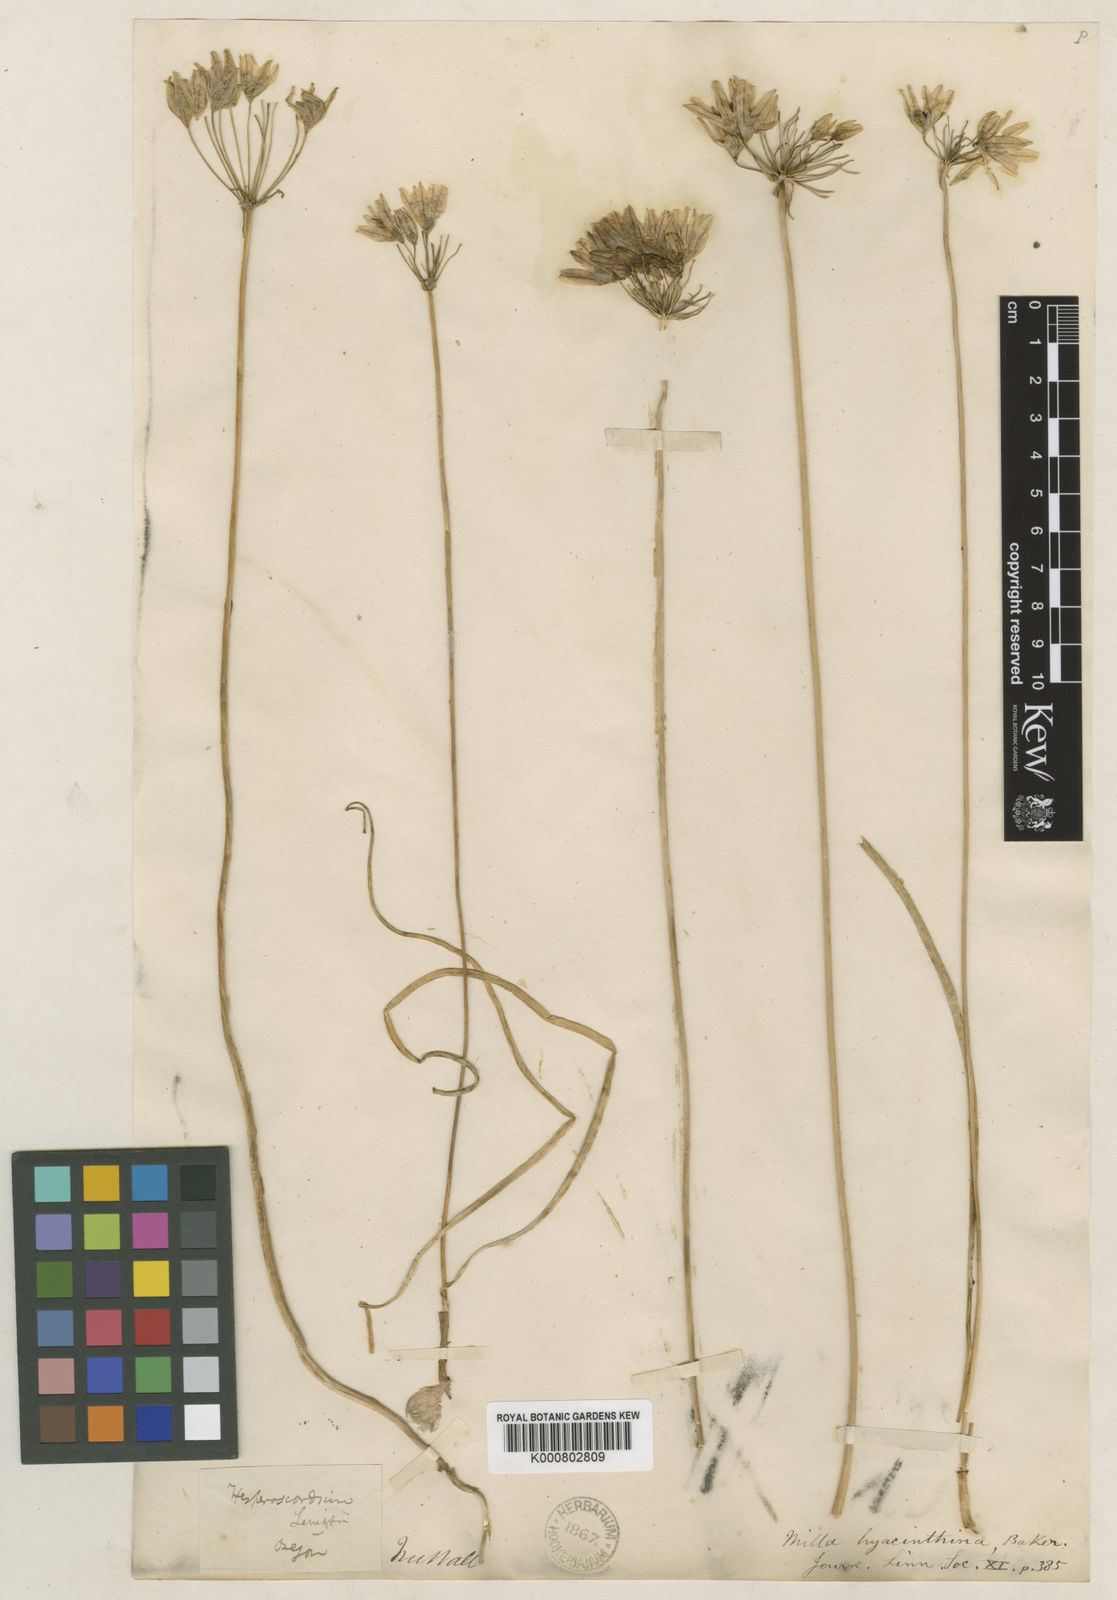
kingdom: Plantae
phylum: Tracheophyta
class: Liliopsida
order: Asparagales
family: Asparagaceae
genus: Triteleia
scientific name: Triteleia hyacinthina
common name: White brodiaea
